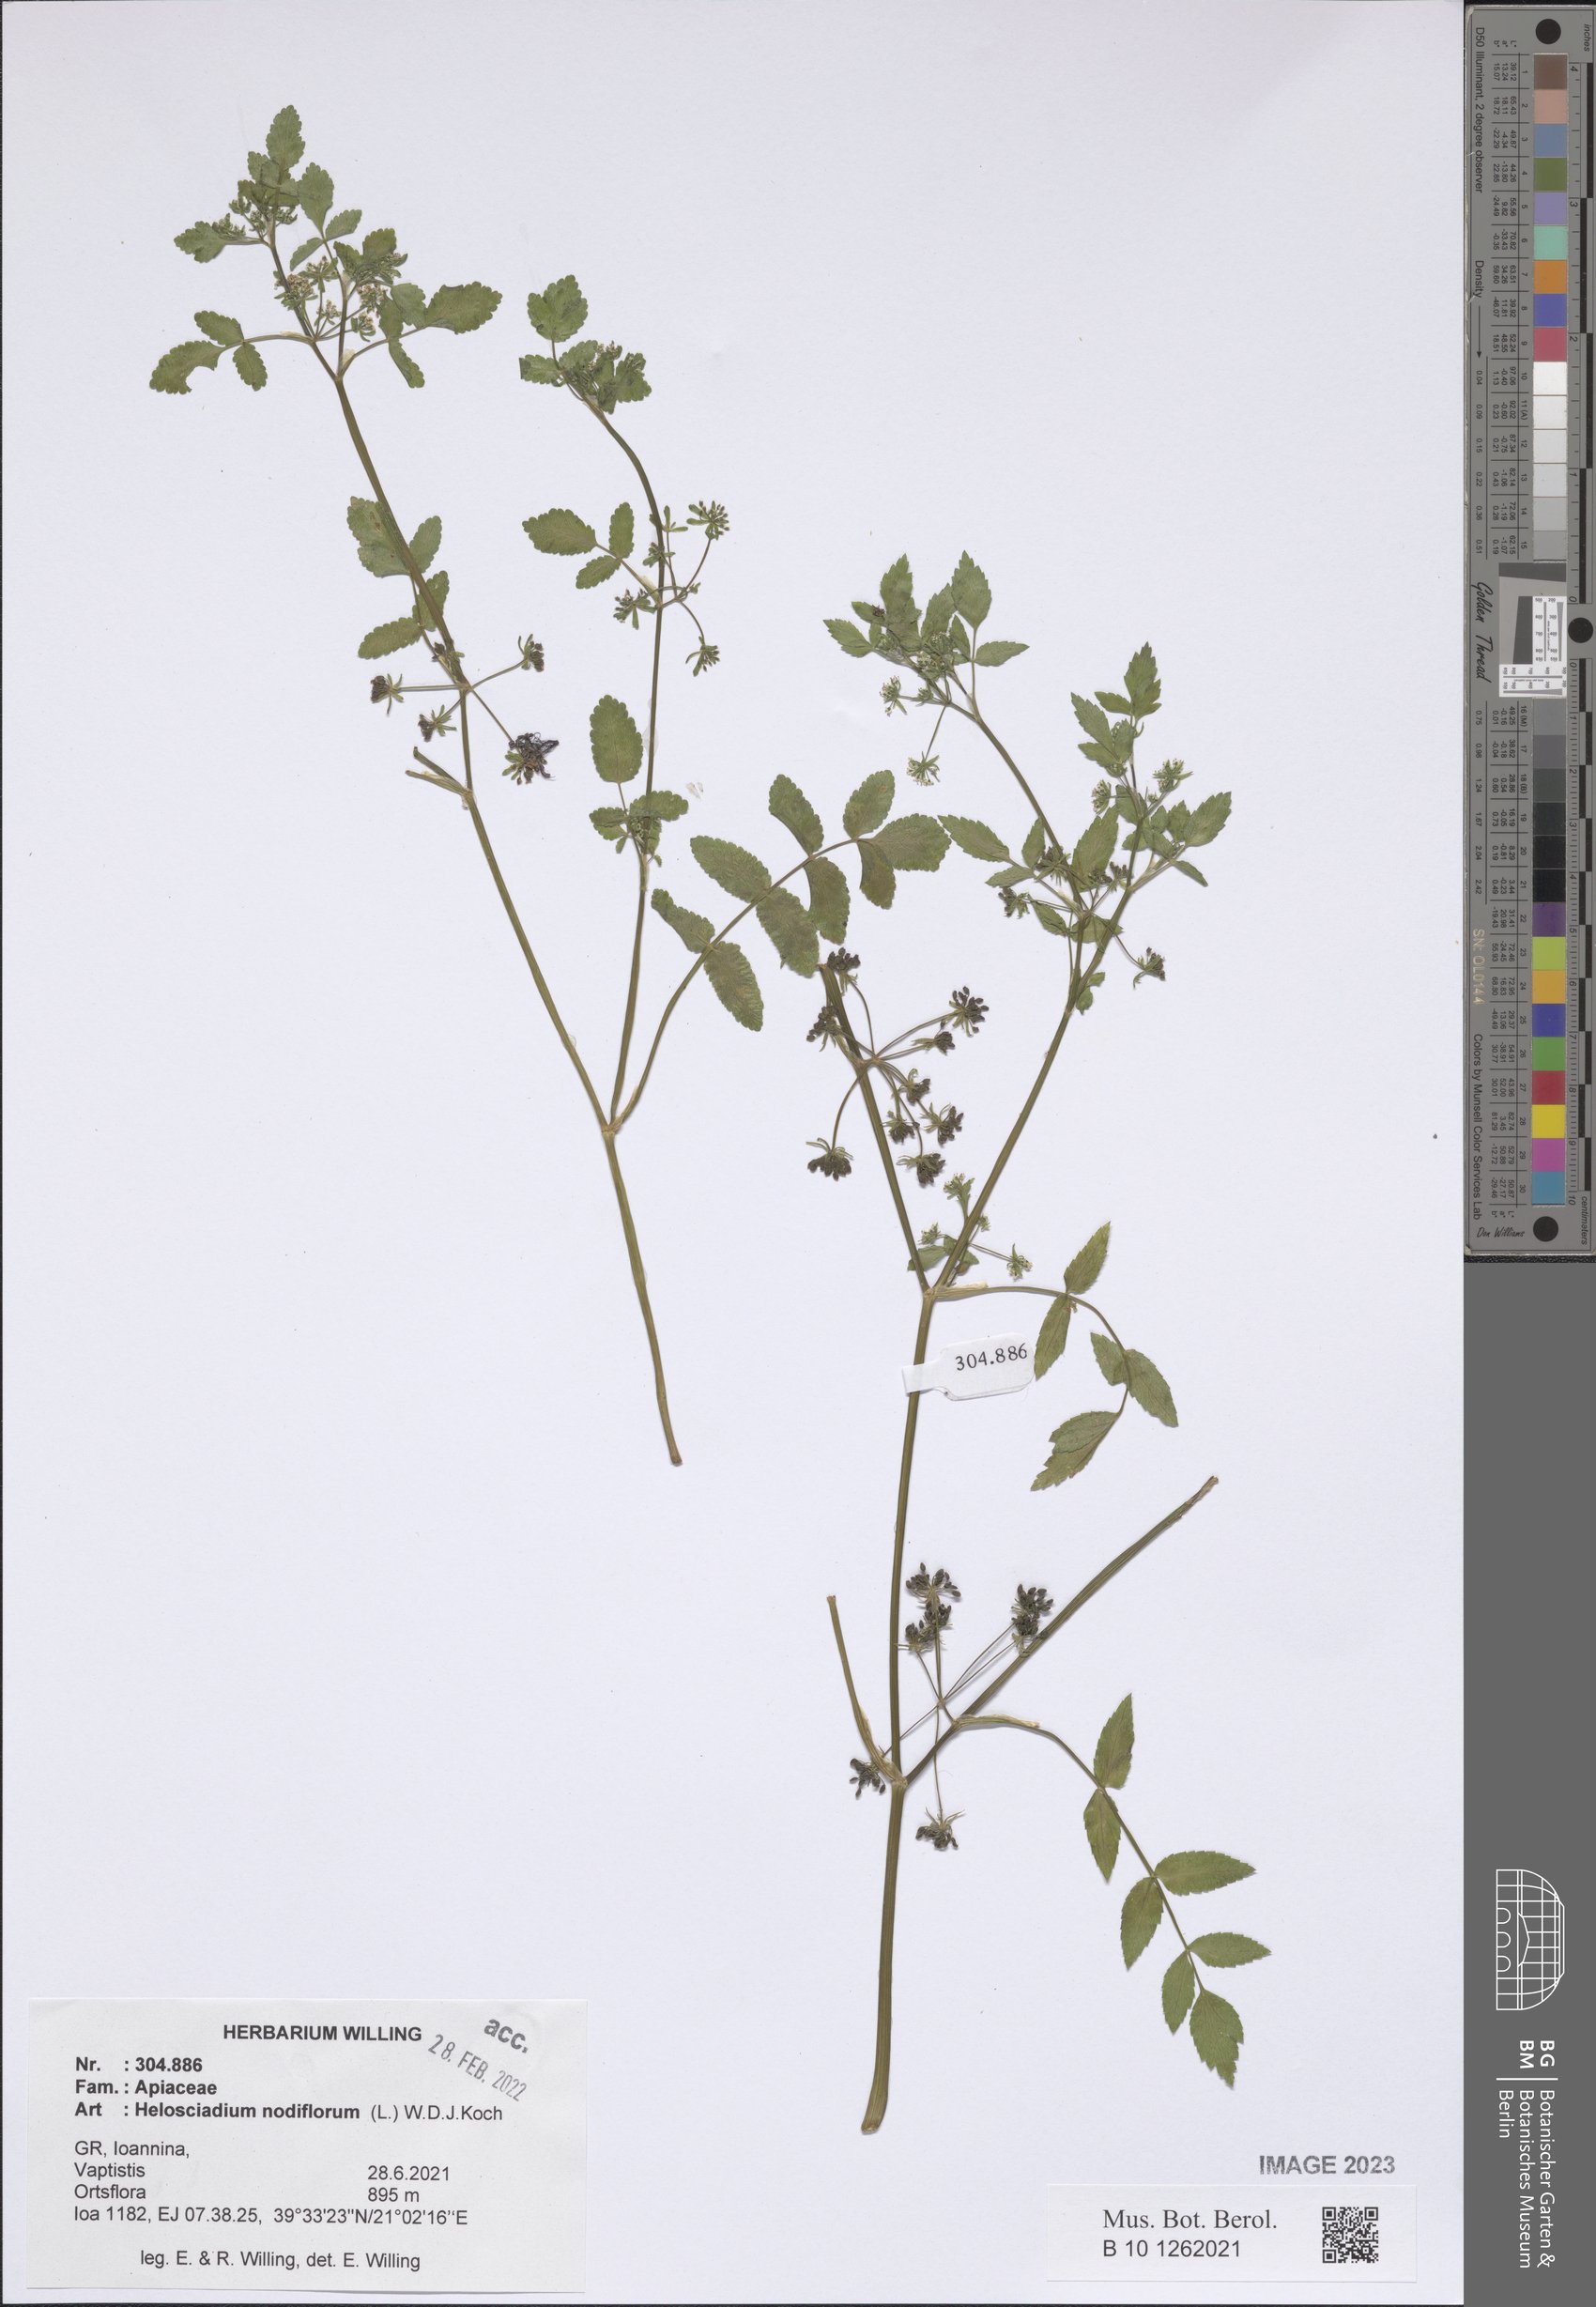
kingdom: Plantae
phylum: Tracheophyta
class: Magnoliopsida
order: Apiales
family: Apiaceae
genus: Helosciadium
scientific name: Helosciadium nodiflorum
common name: Fool's-watercress
